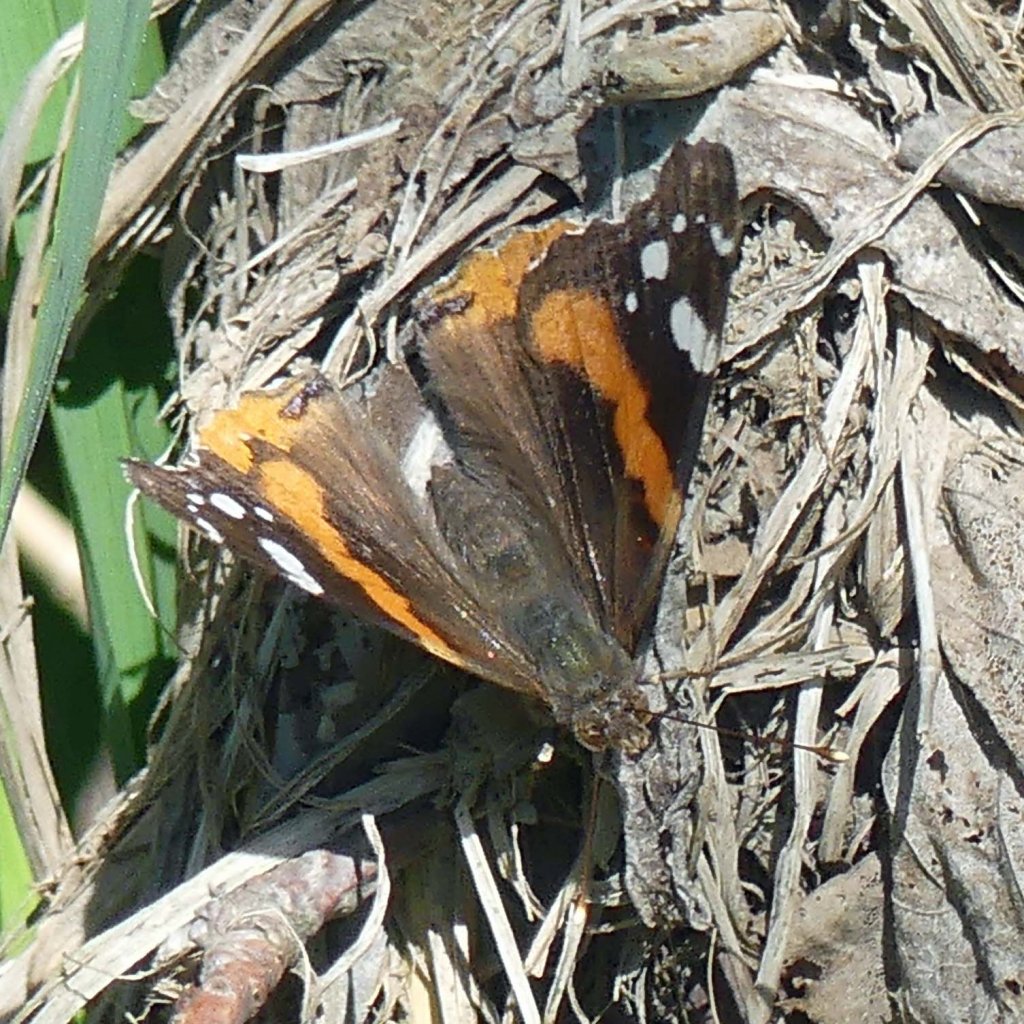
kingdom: Animalia
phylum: Arthropoda
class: Insecta
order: Lepidoptera
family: Nymphalidae
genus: Vanessa
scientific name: Vanessa atalanta
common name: Red Admiral
